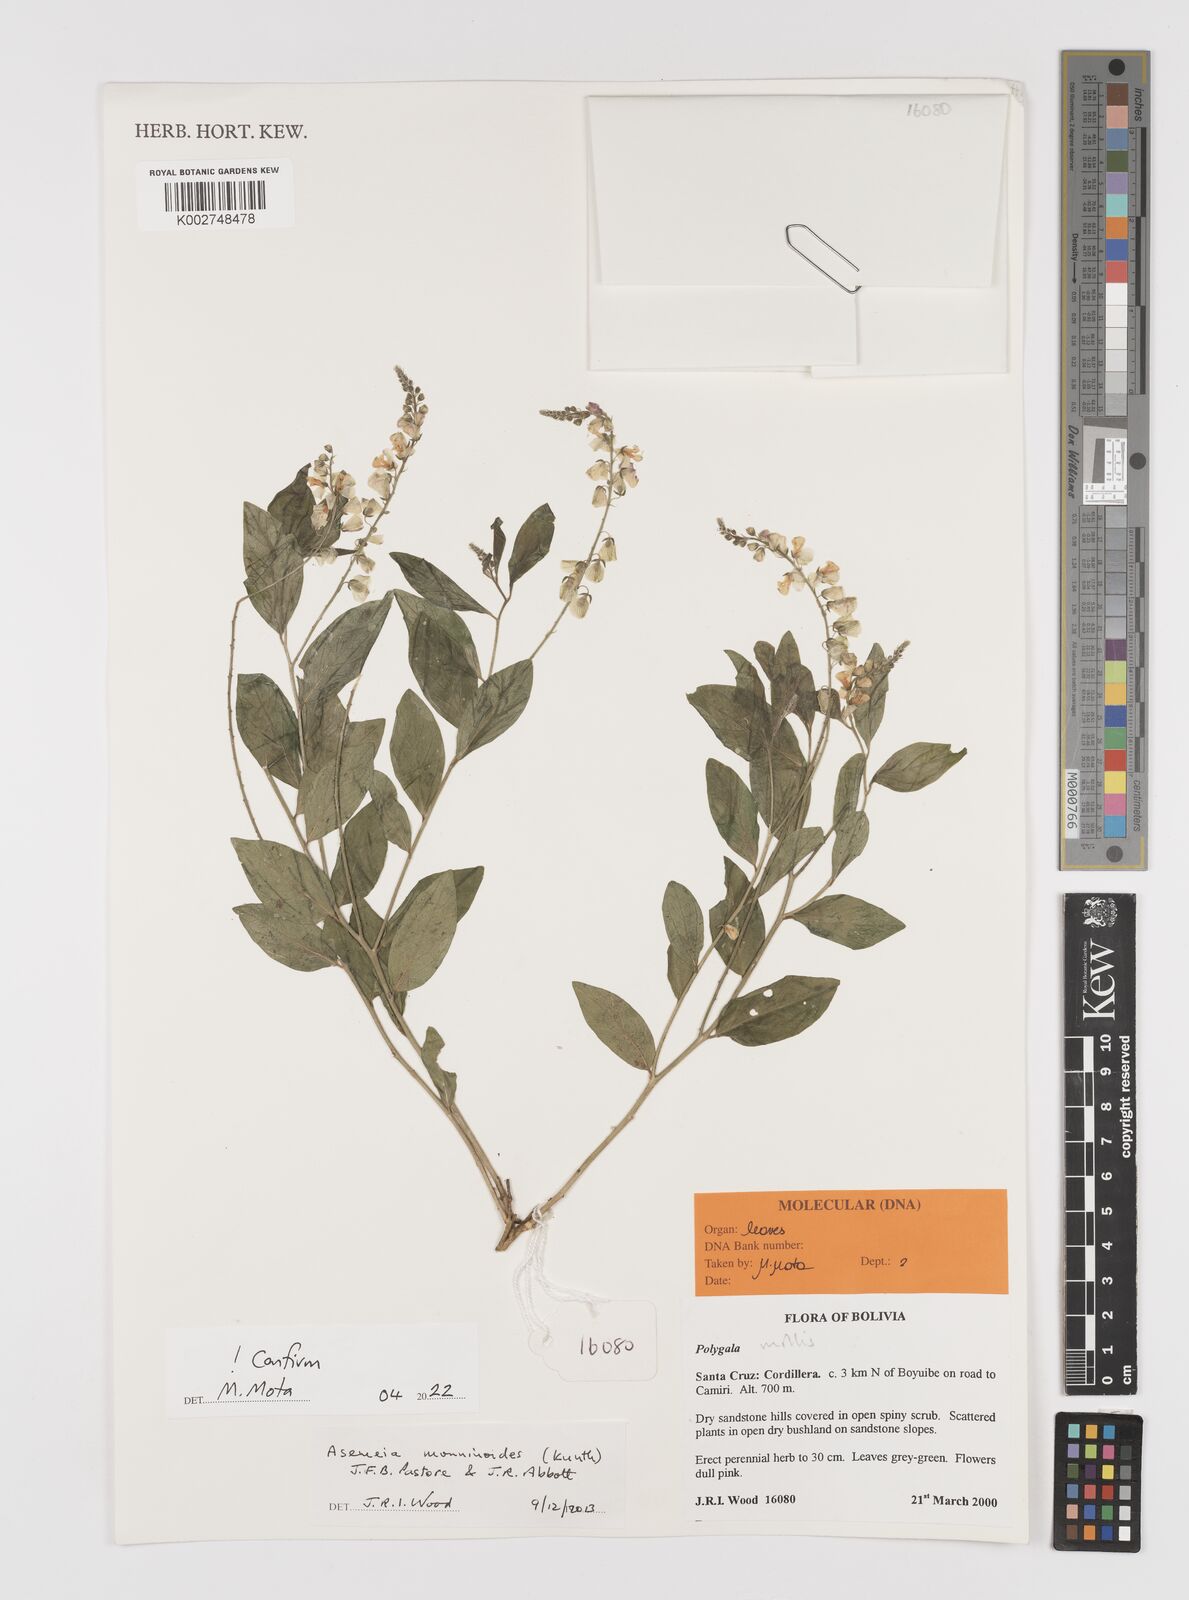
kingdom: Plantae
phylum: Tracheophyta
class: Magnoliopsida
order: Fabales
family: Polygalaceae
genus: Asemeia
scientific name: Asemeia monninoides
